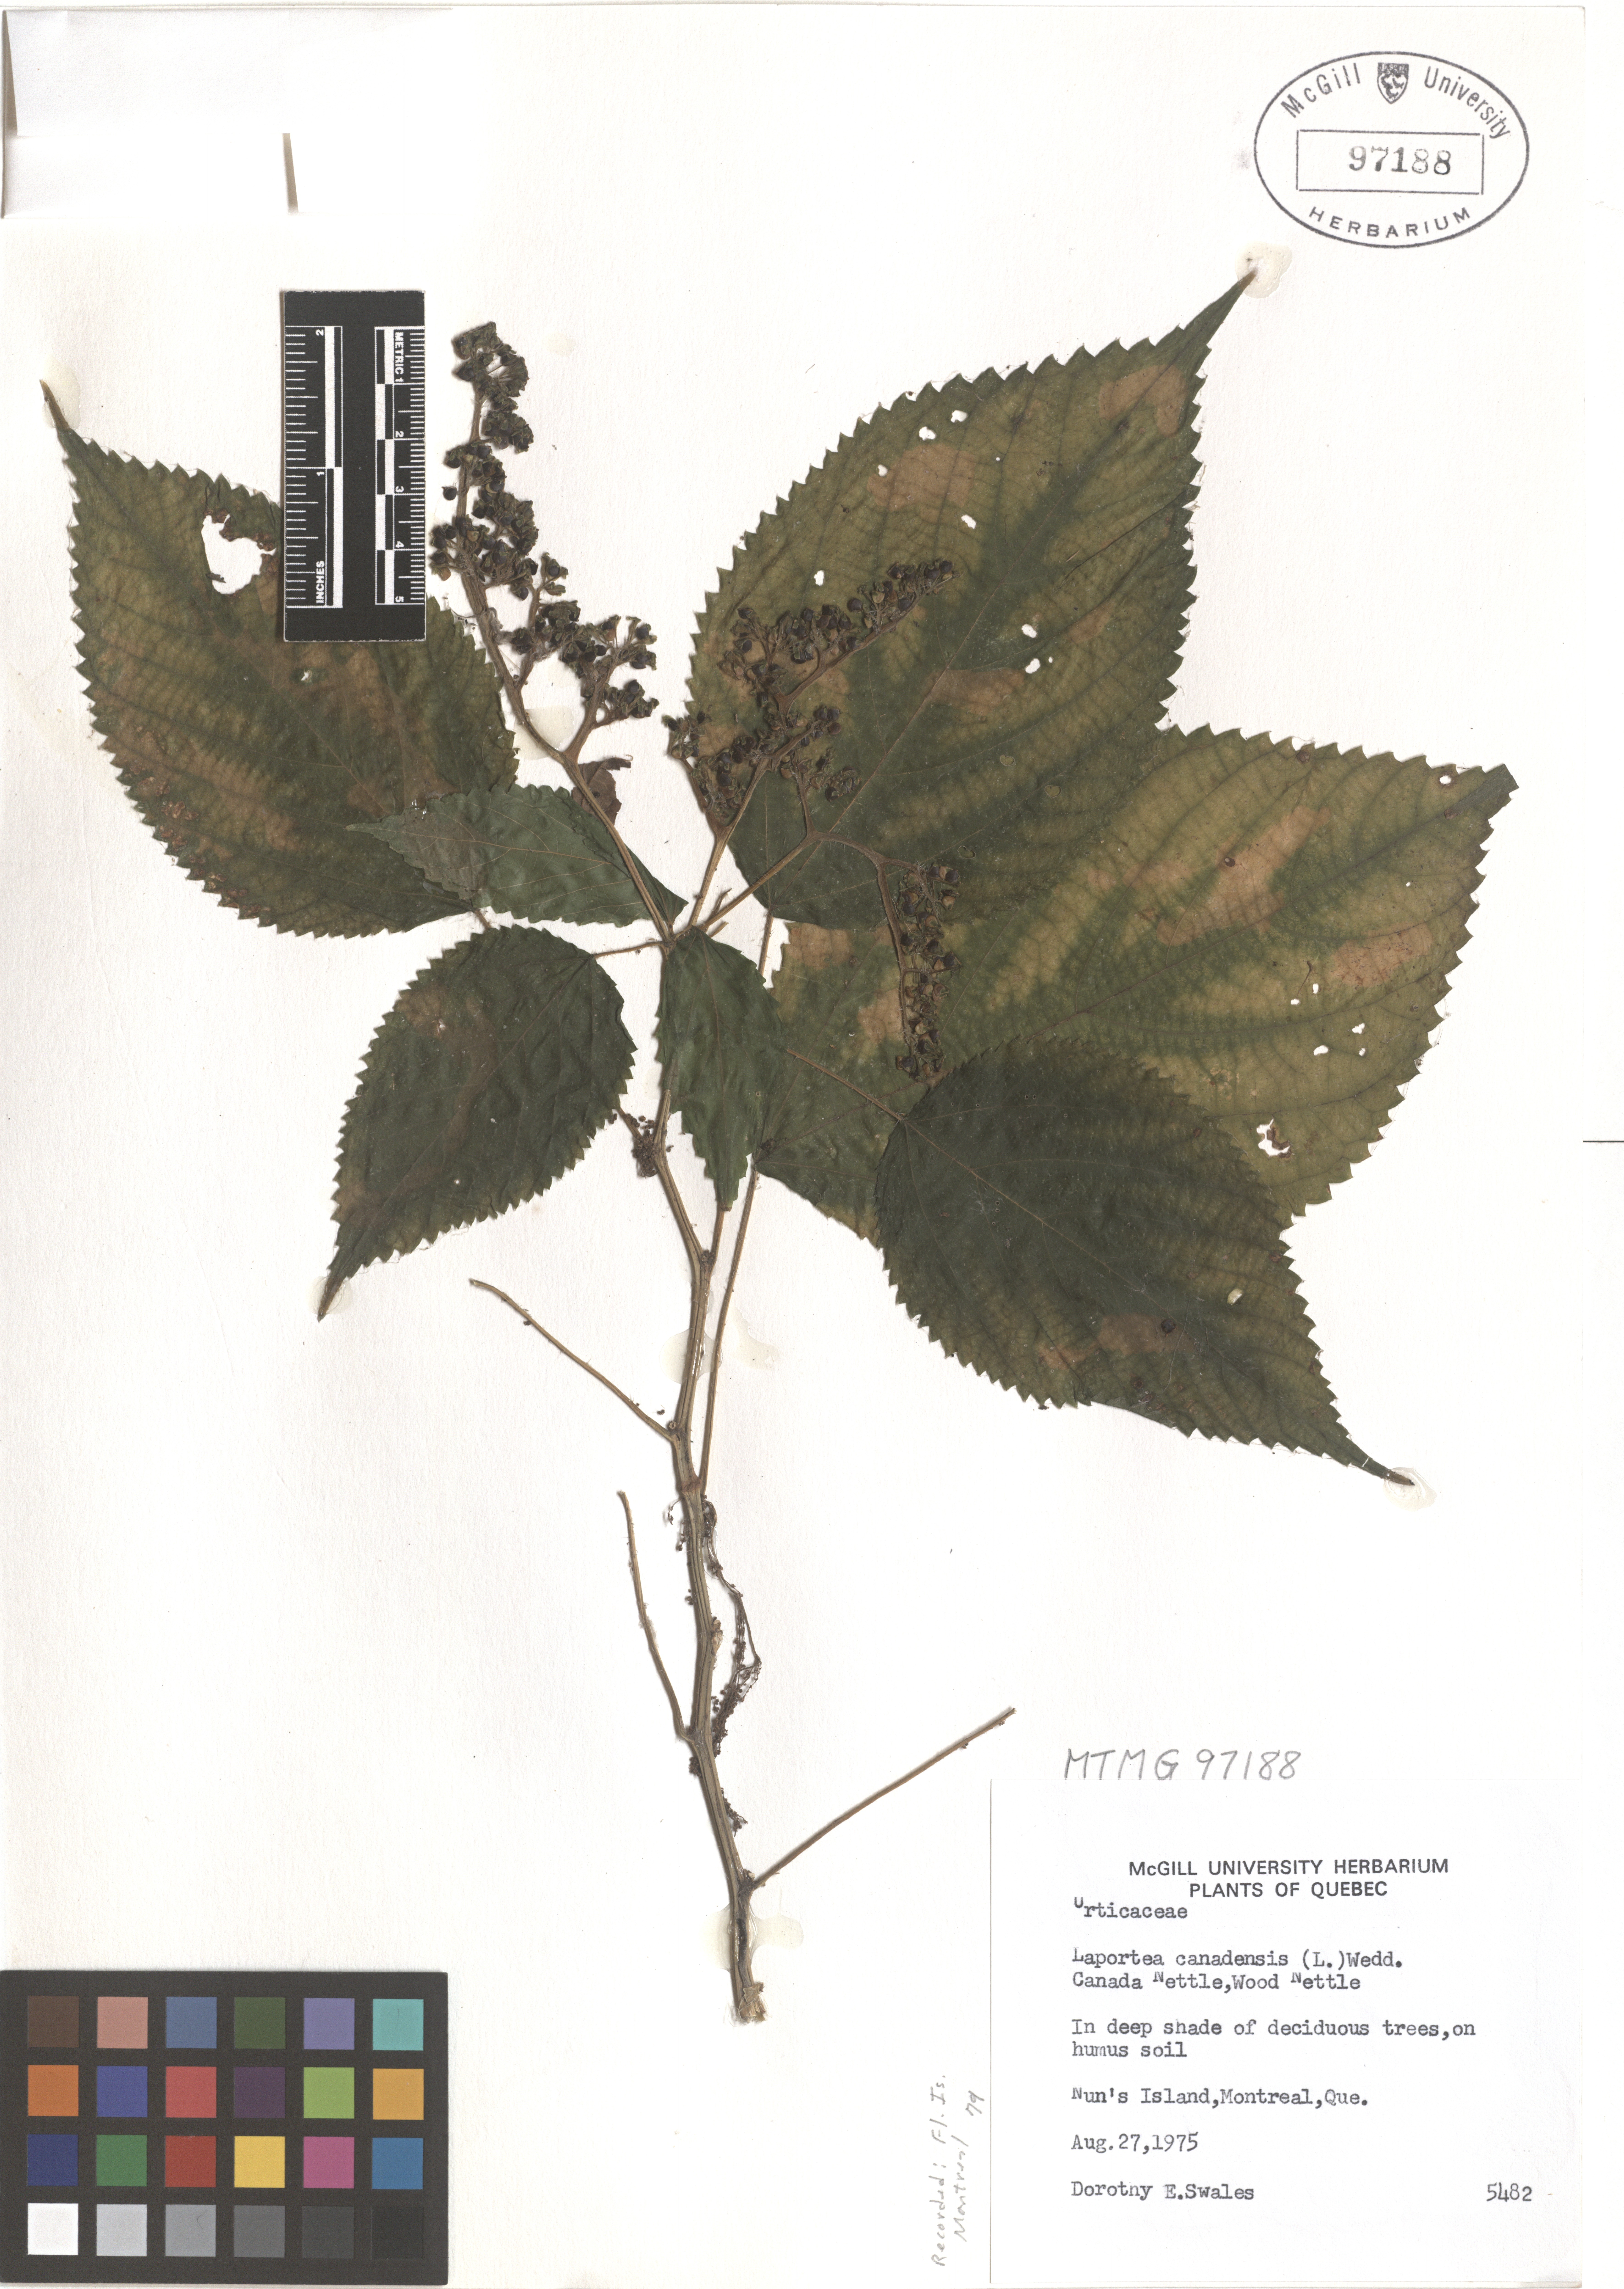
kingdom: Plantae
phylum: Tracheophyta
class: Magnoliopsida
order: Rosales
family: Urticaceae
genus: Laportea
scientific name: Laportea canadensis
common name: Canada nettle
